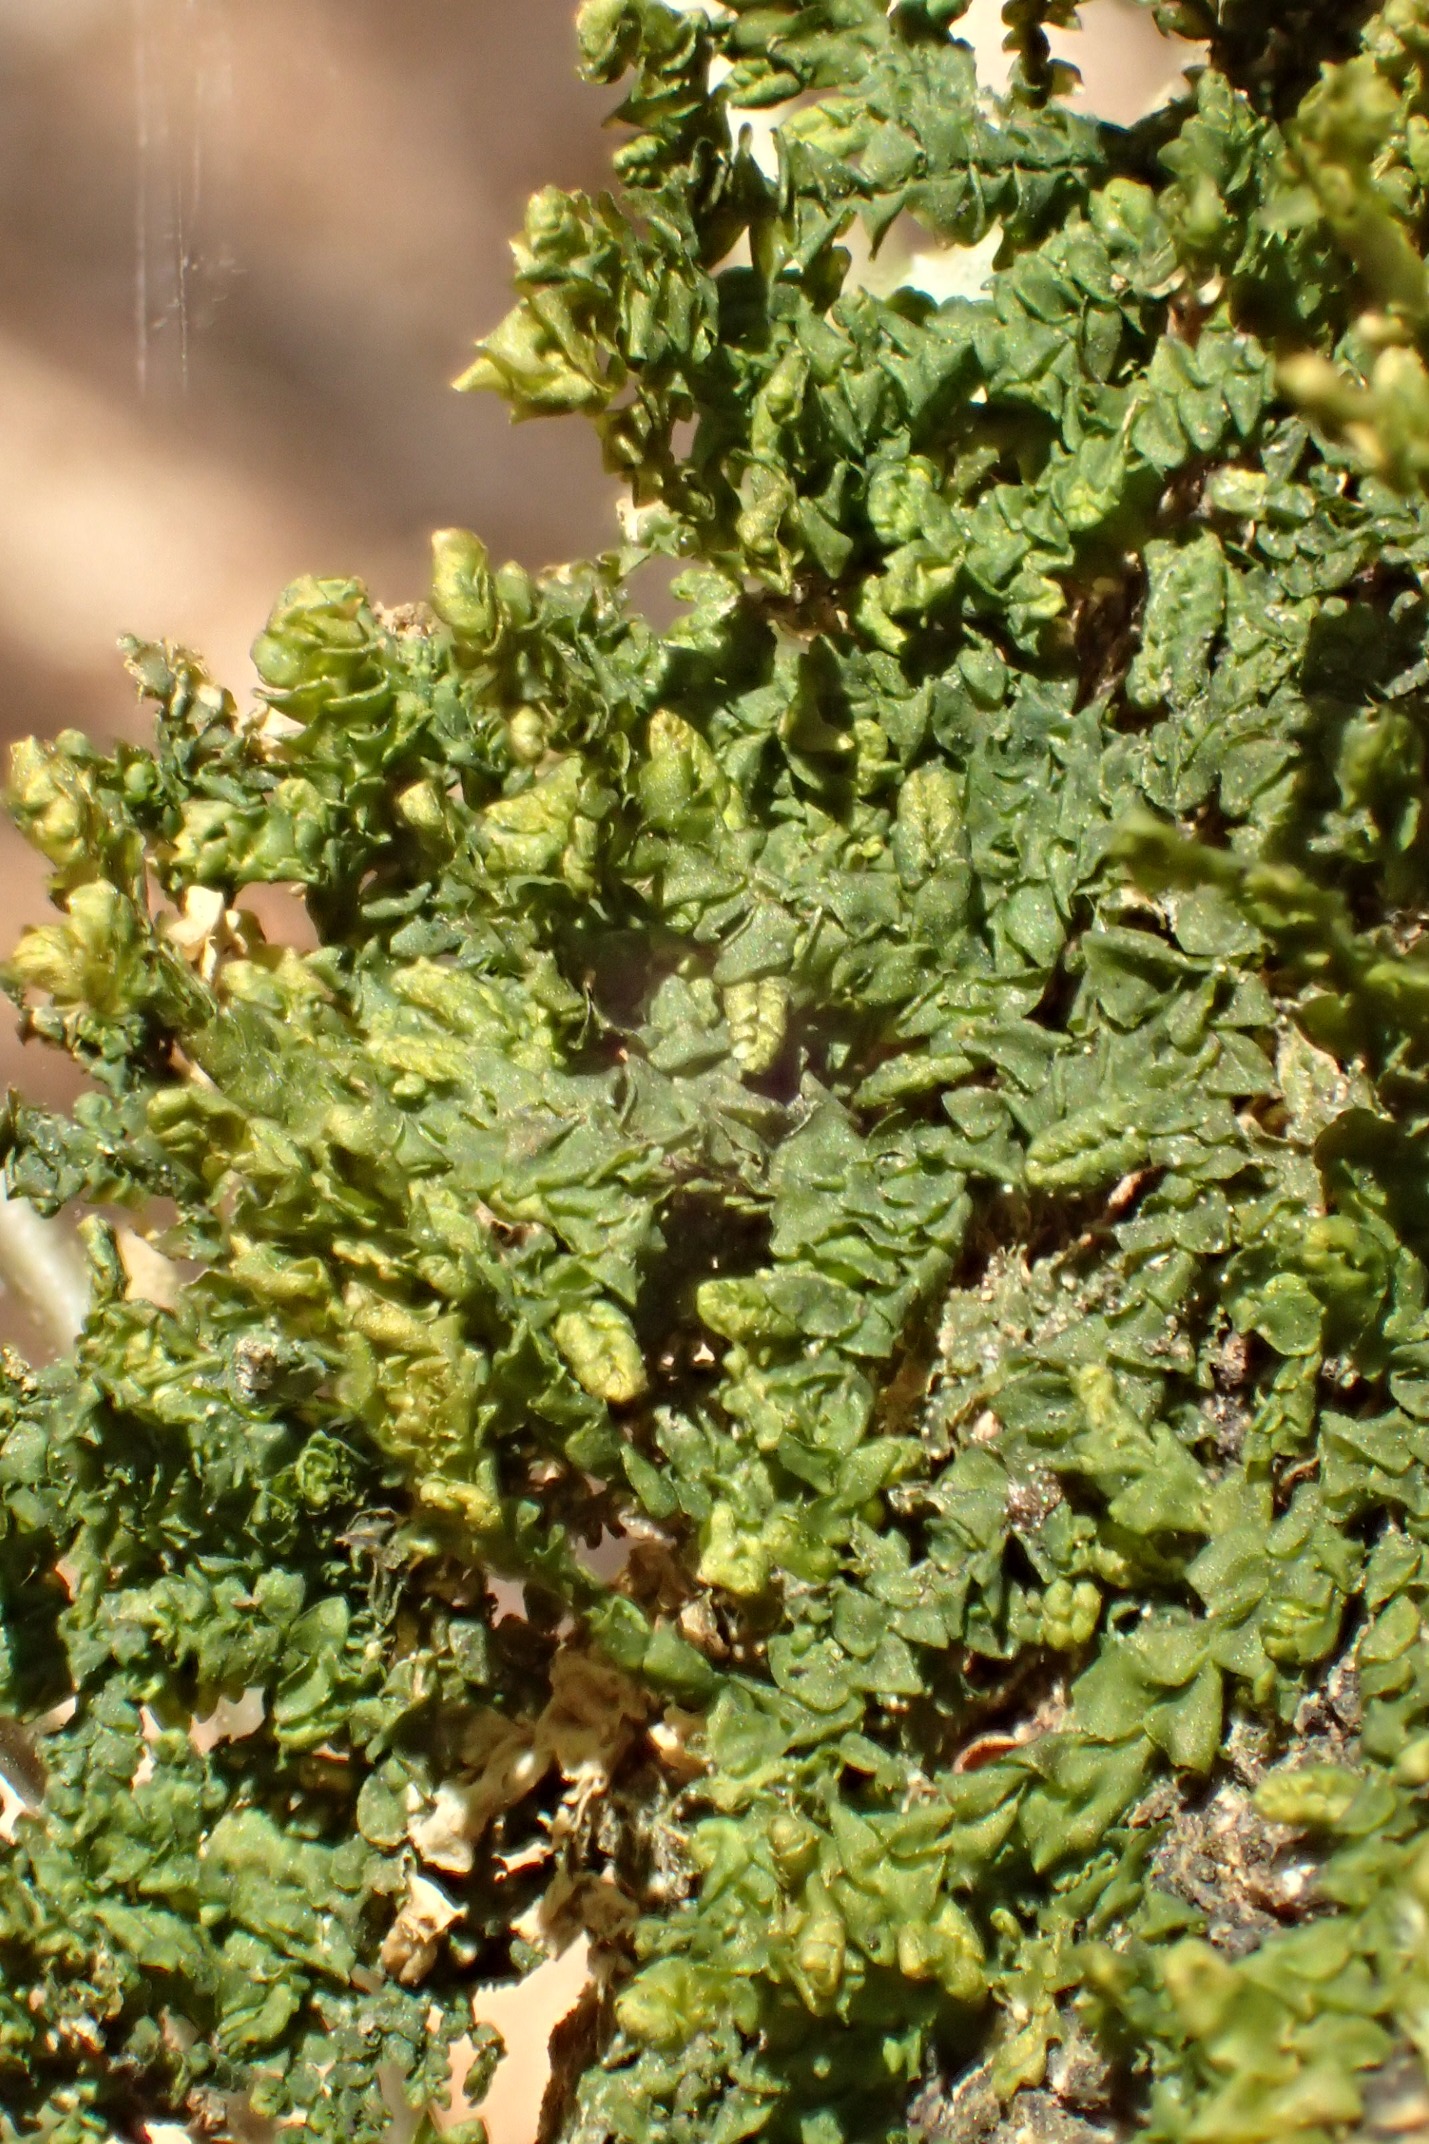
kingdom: Plantae
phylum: Marchantiophyta
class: Jungermanniopsida
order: Porellales
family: Porellaceae
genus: Porella
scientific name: Porella platyphylla
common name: Almindelig skælryg
